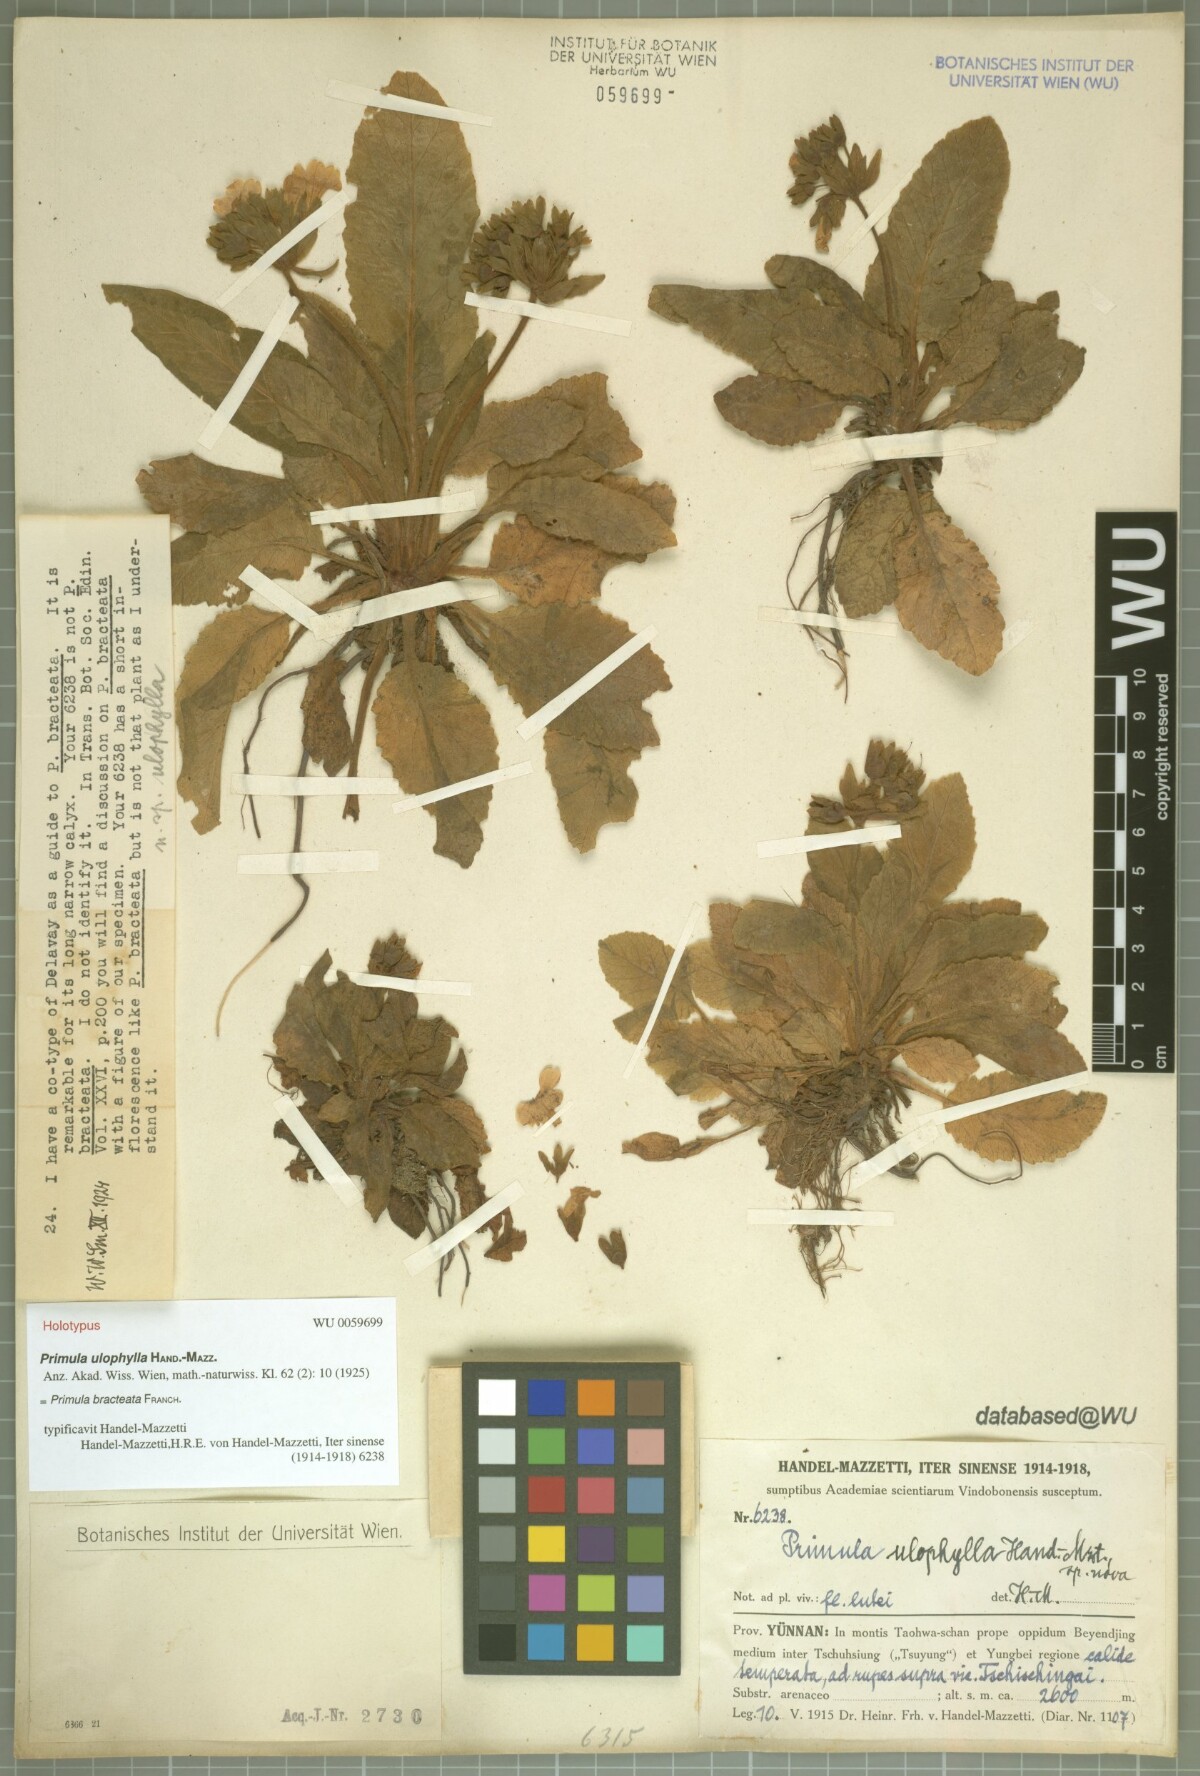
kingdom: Plantae
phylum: Tracheophyta
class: Magnoliopsida
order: Ericales
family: Primulaceae
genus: Primula
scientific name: Primula bullata
